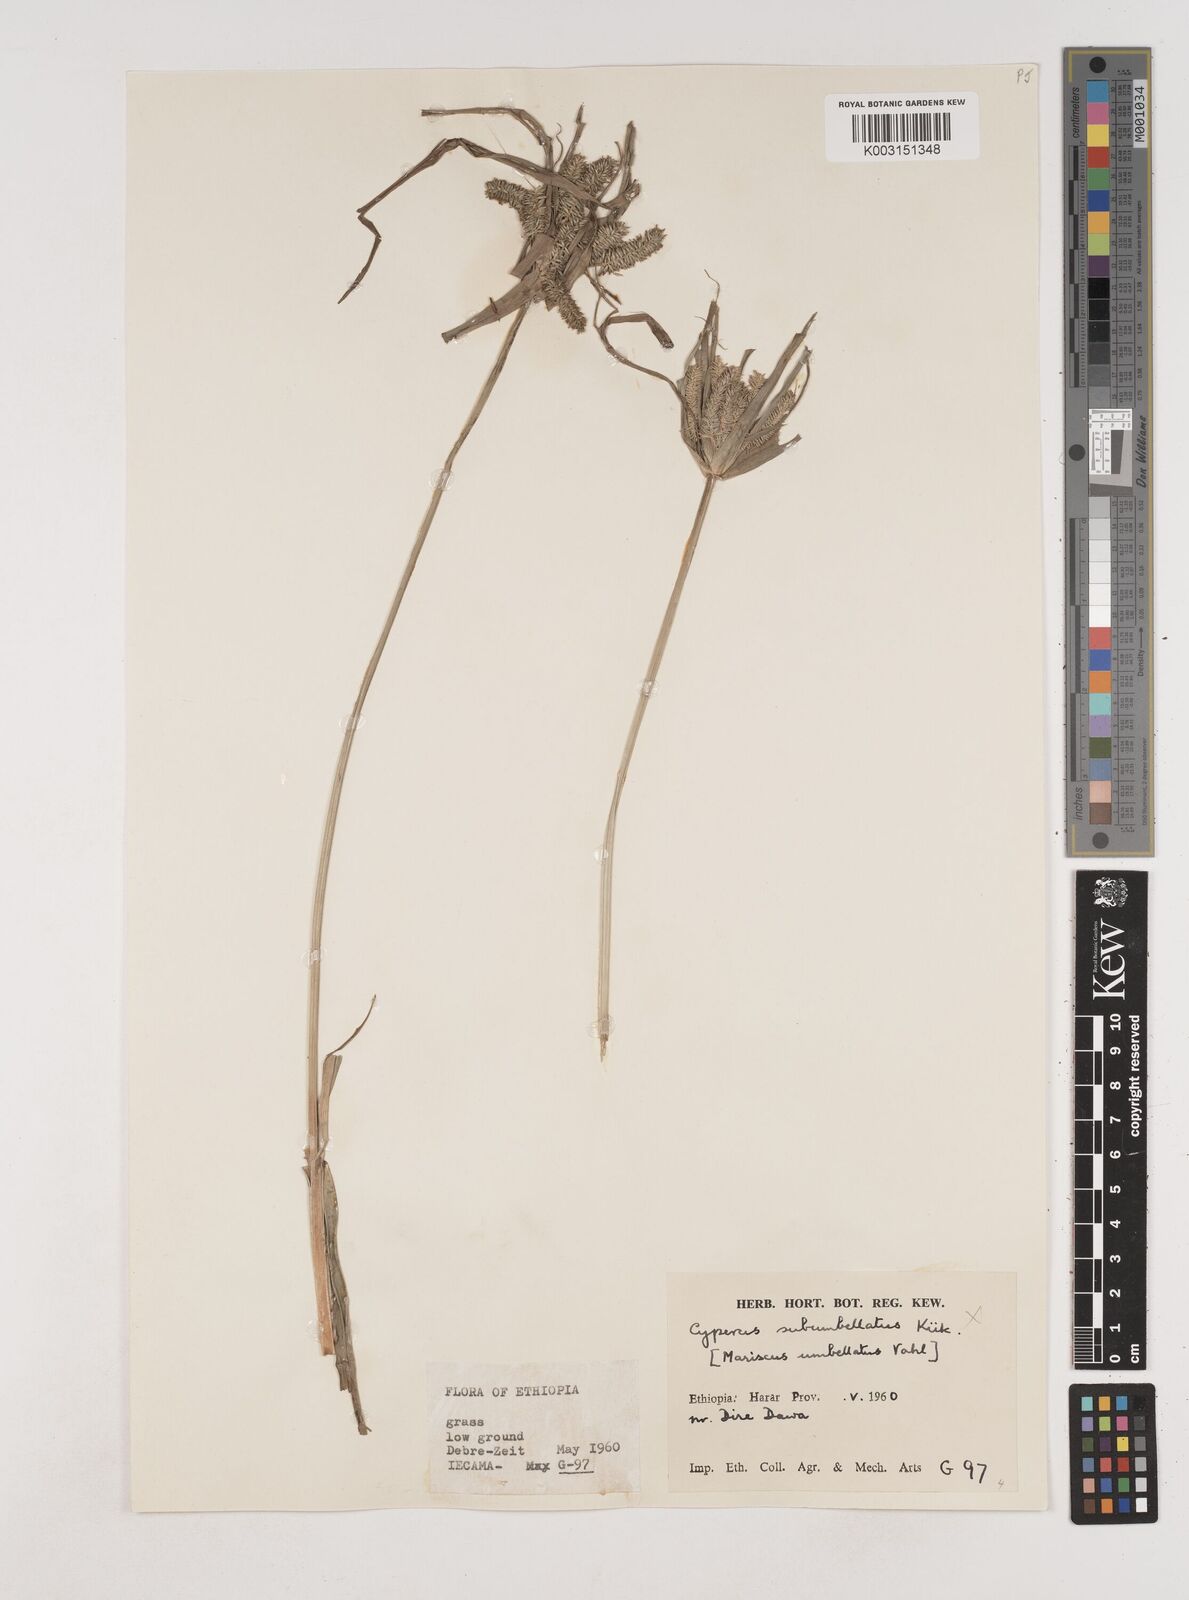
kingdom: Plantae
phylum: Tracheophyta
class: Liliopsida
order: Poales
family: Cyperaceae
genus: Cyperus
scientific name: Cyperus cyperoides
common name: Pacific island flat sedge
